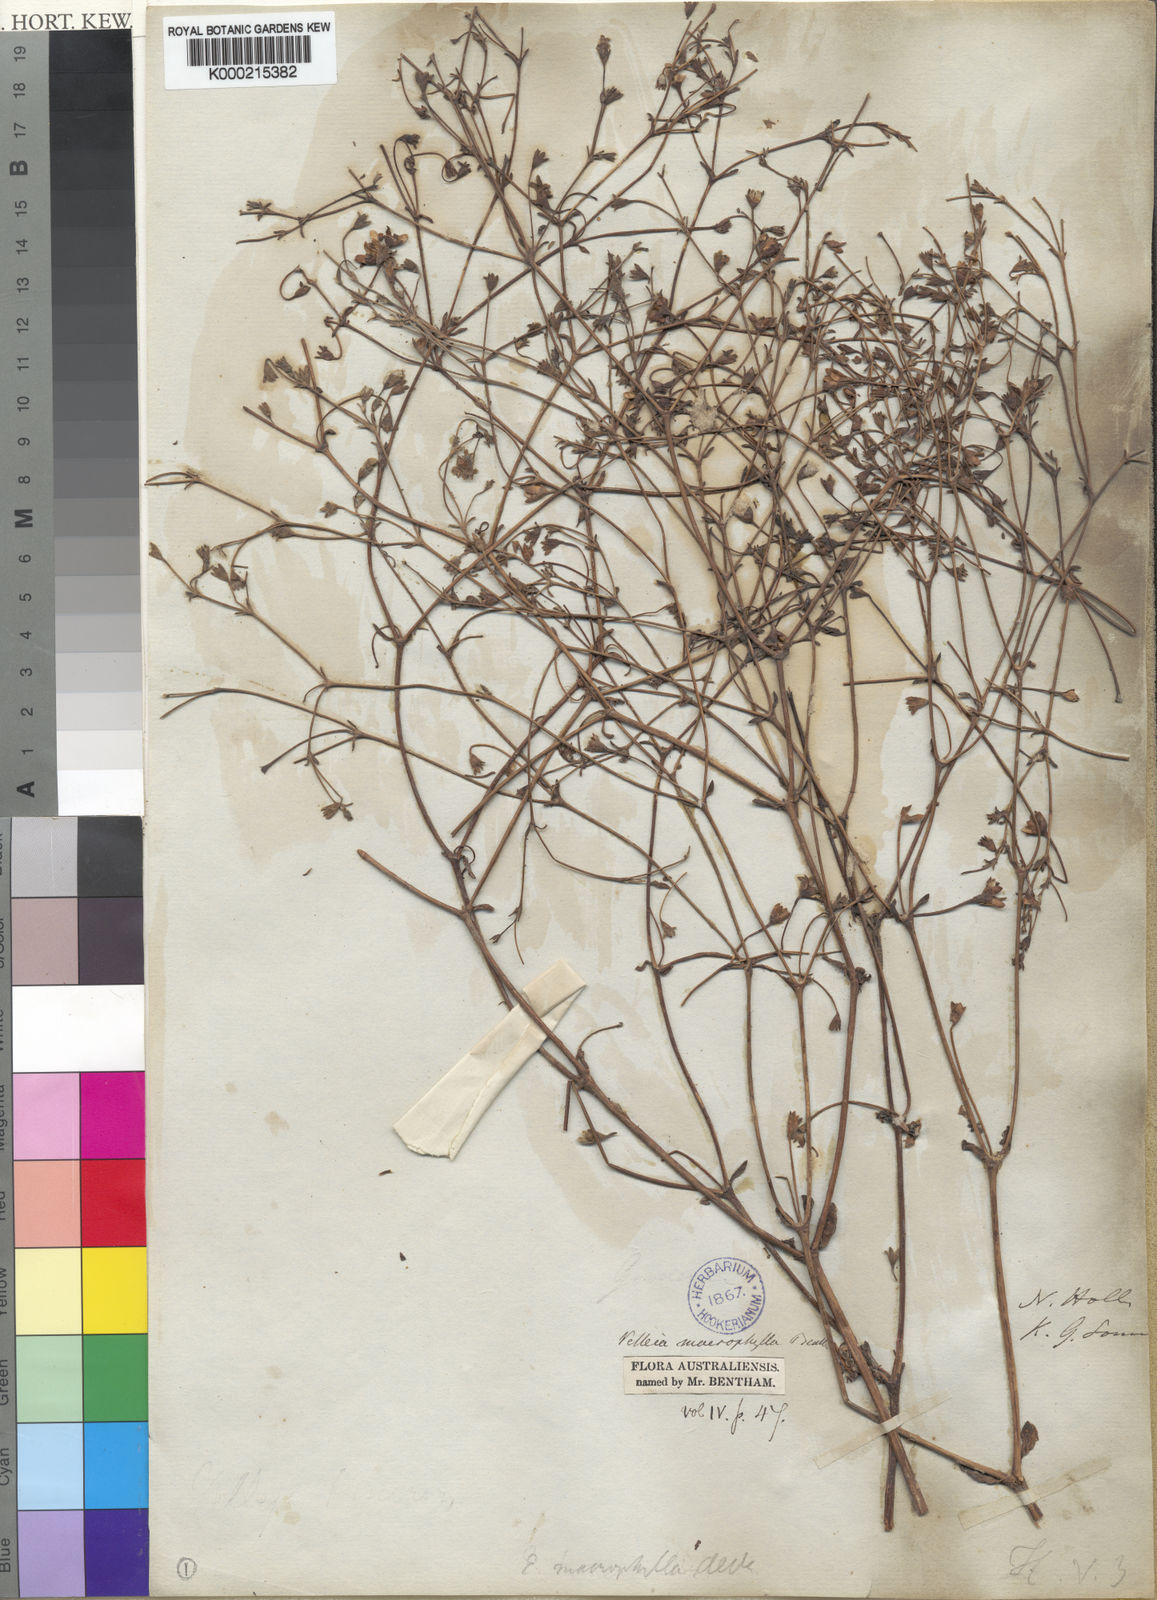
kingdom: Plantae
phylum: Tracheophyta
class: Magnoliopsida
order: Asterales
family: Goodeniaceae
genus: Goodenia
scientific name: Goodenia macrophylla
